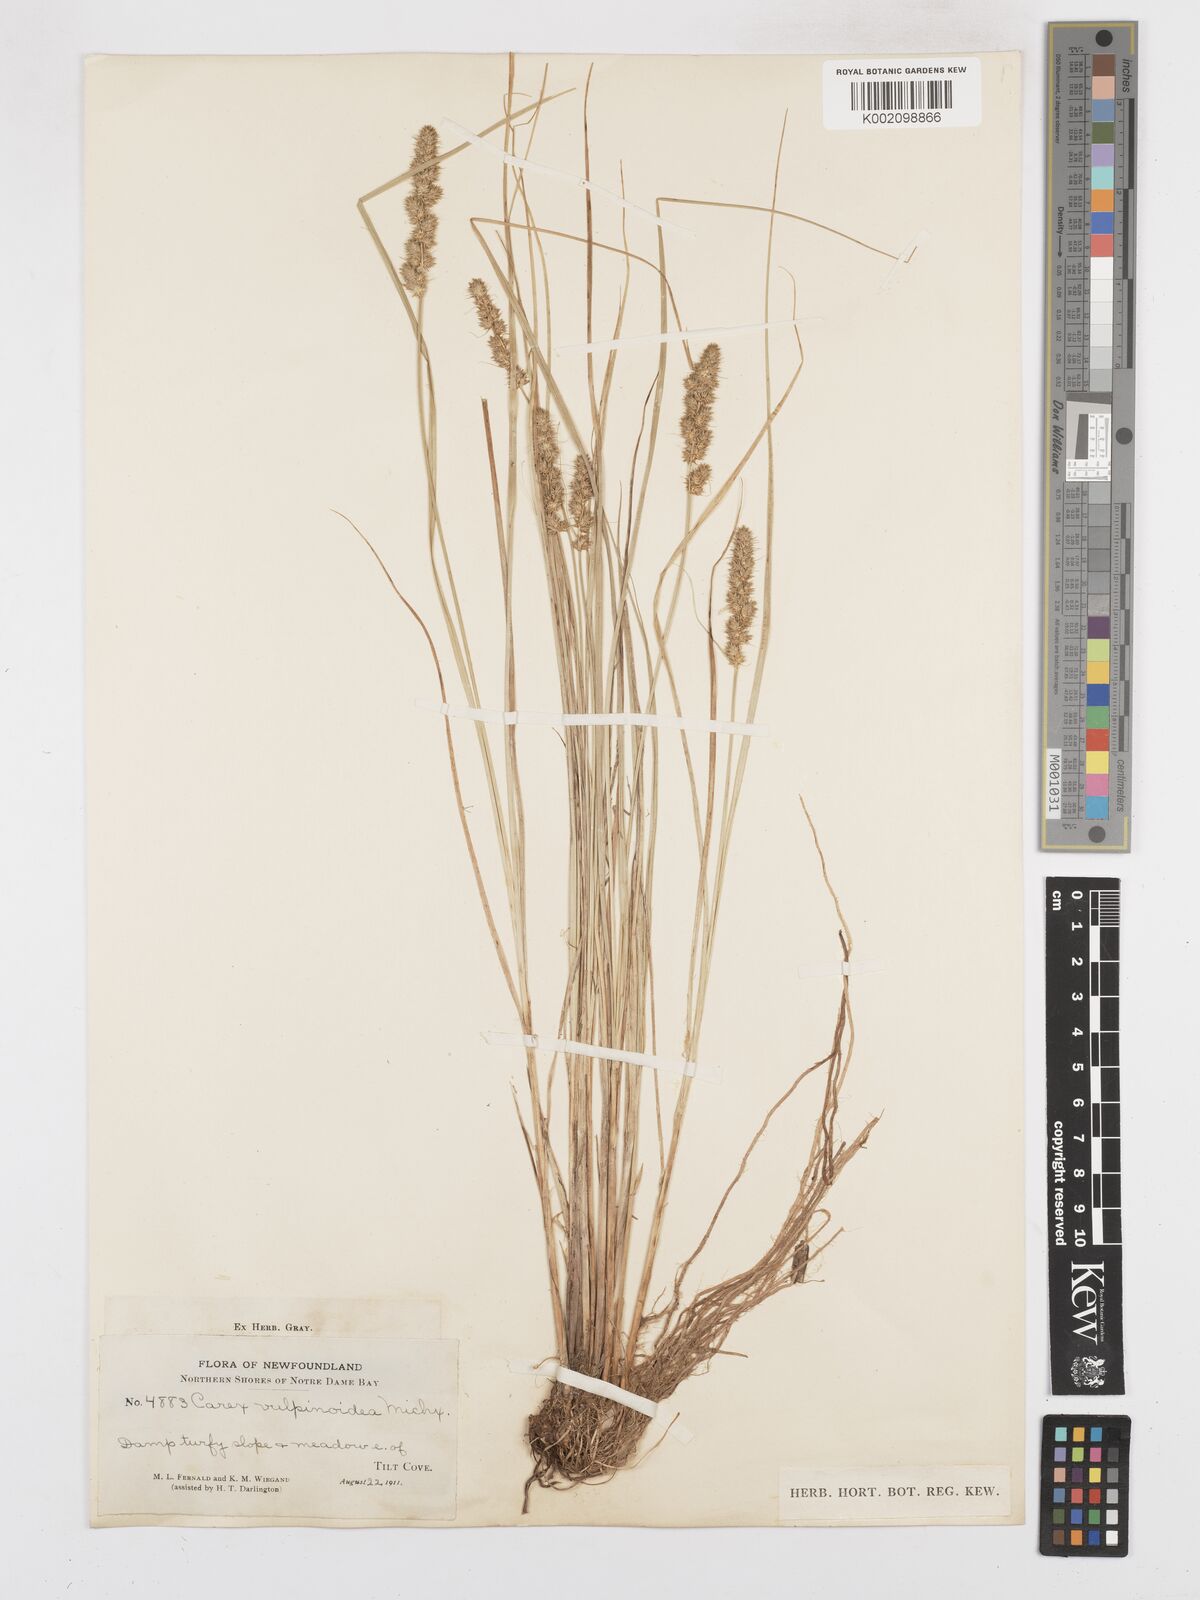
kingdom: Plantae
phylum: Tracheophyta
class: Liliopsida
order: Poales
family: Cyperaceae
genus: Carex
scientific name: Carex vulpinoidea
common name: American fox-sedge
